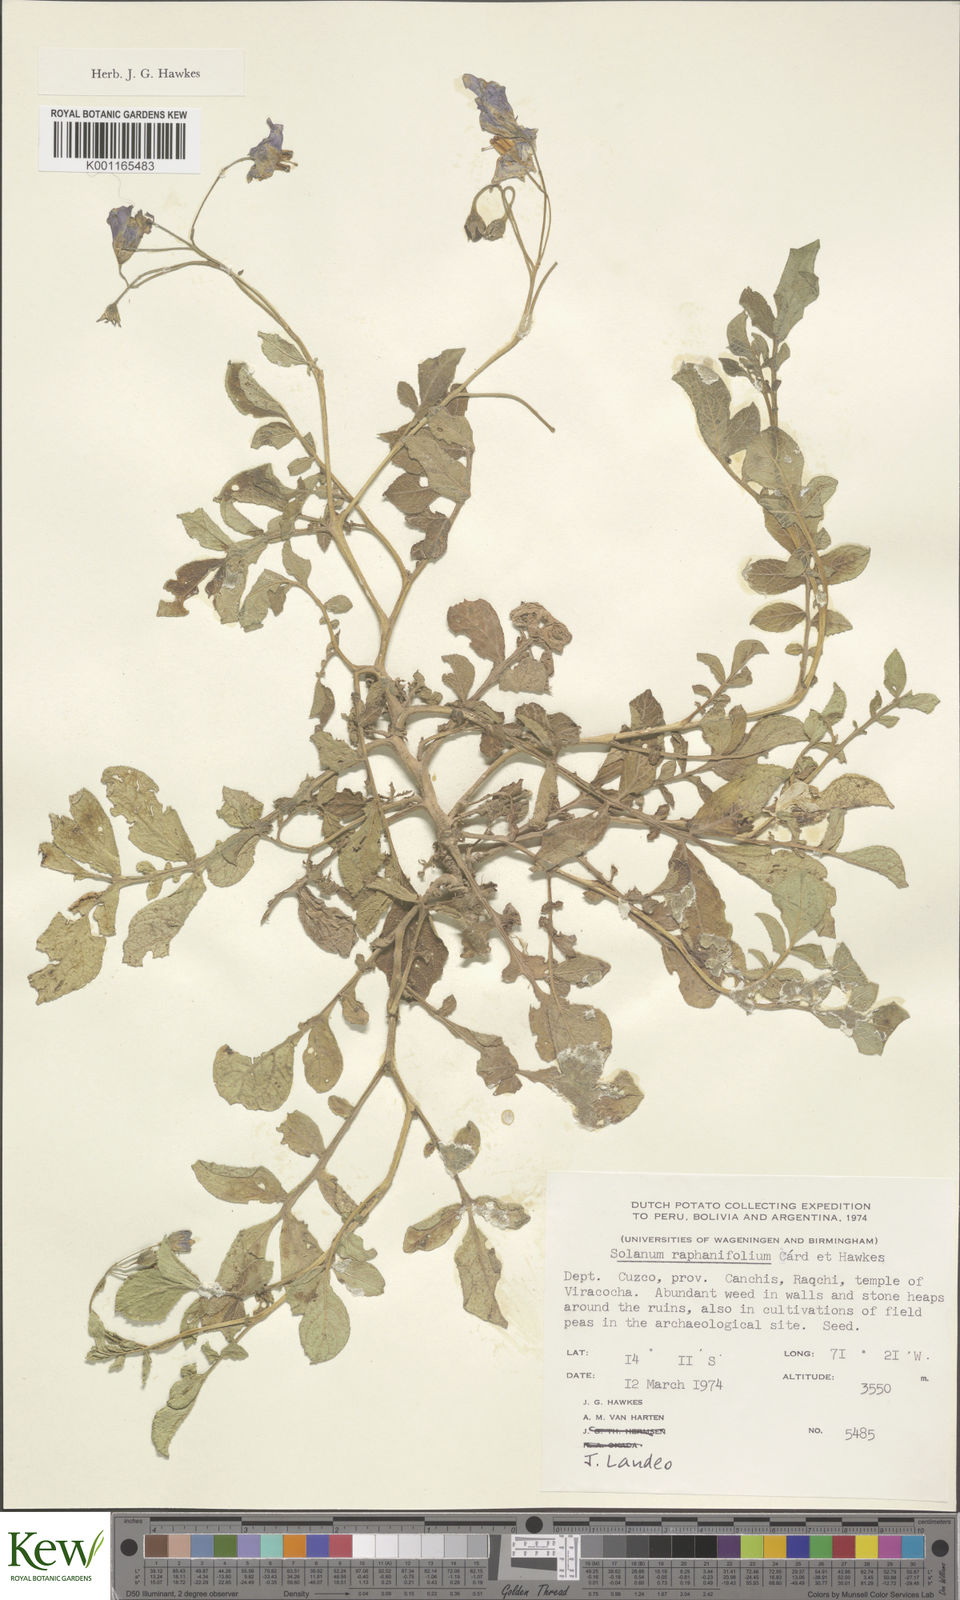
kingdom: Plantae
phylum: Tracheophyta
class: Magnoliopsida
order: Solanales
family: Solanaceae
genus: Solanum
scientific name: Solanum raphanifolium
